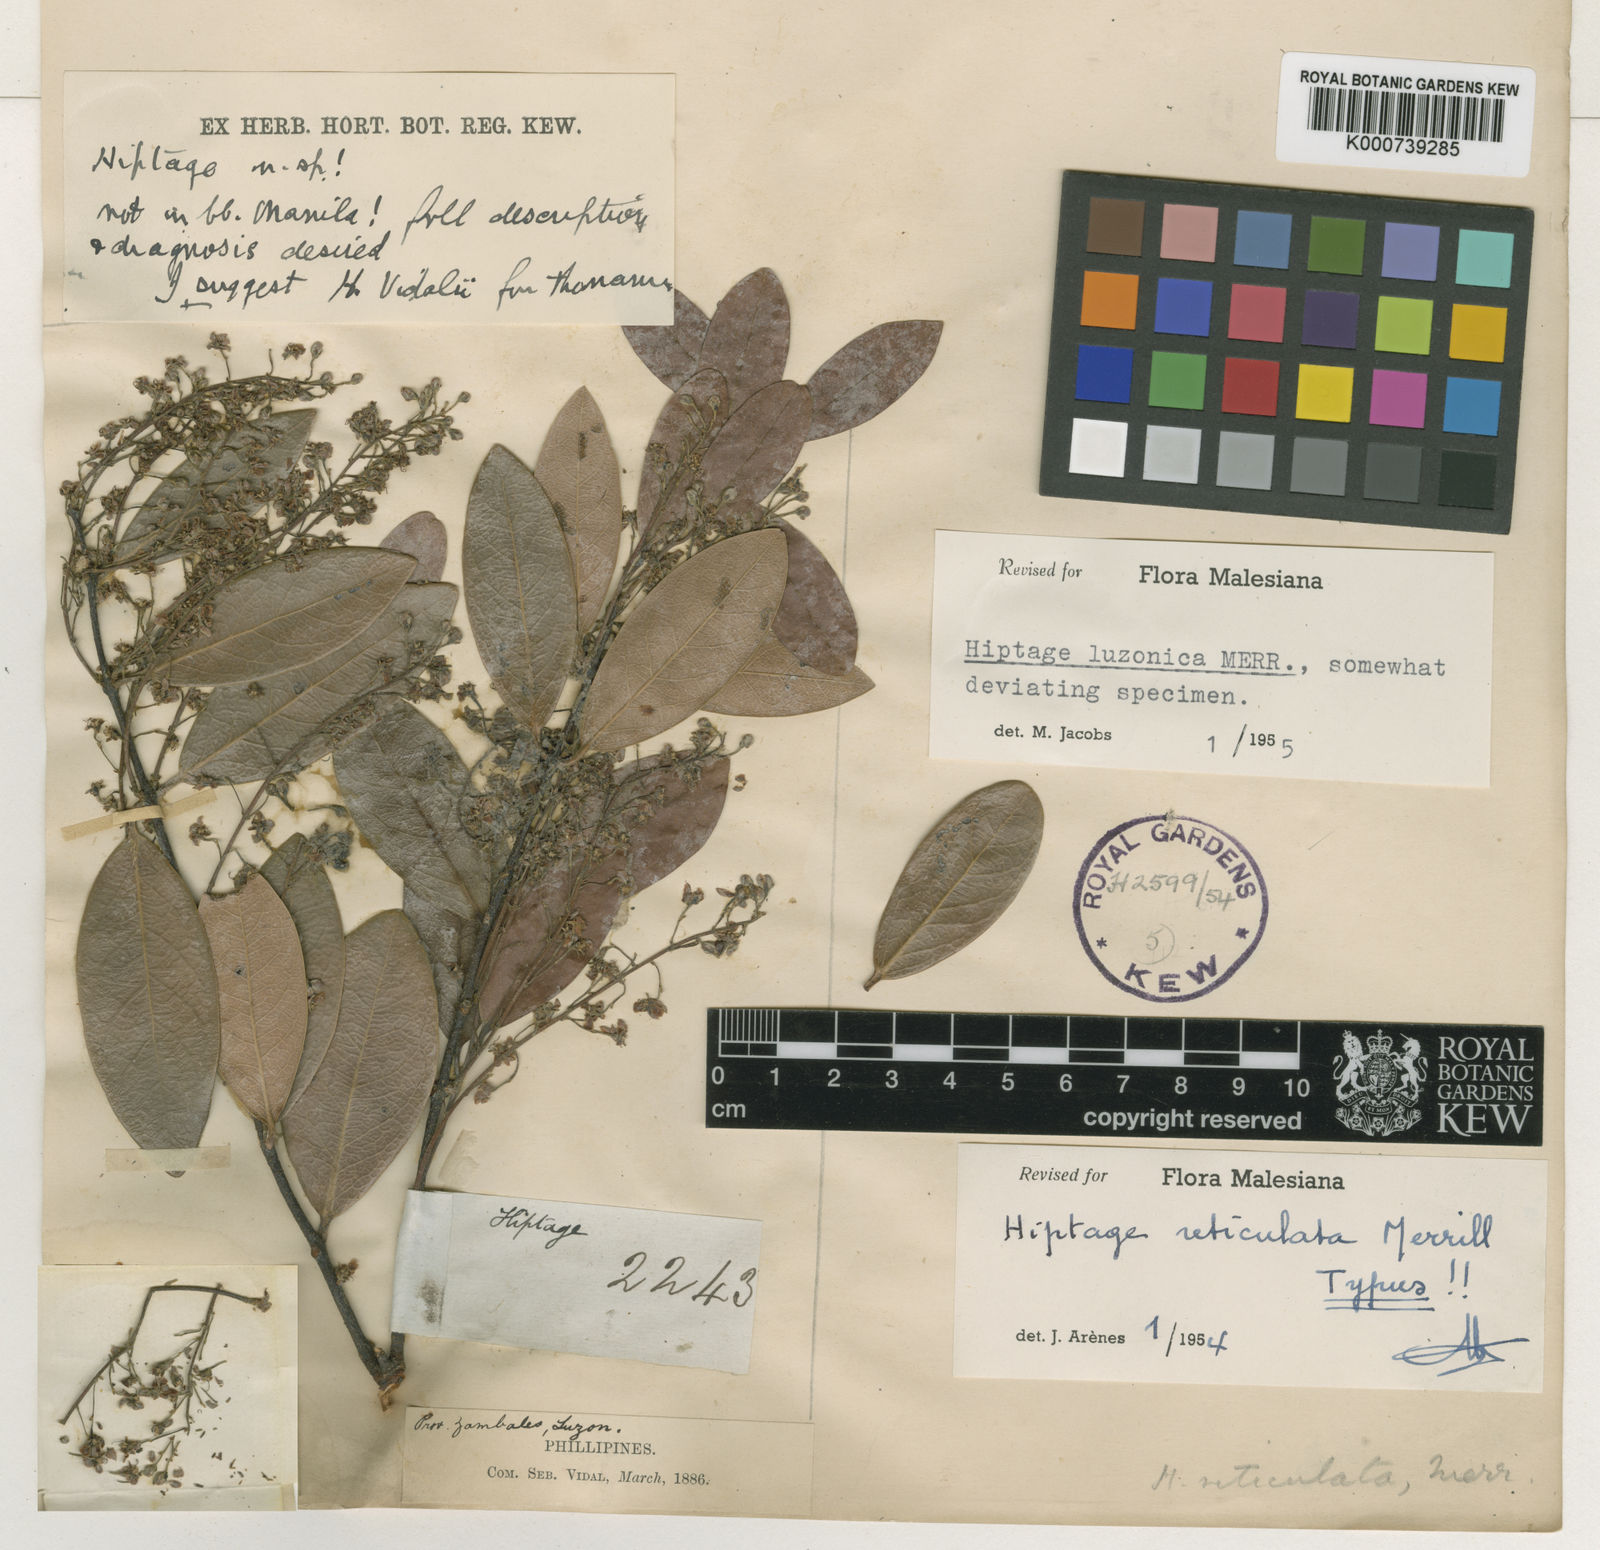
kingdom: Plantae
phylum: Tracheophyta
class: Magnoliopsida
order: Malpighiales
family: Malpighiaceae
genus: Hiptage
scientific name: Hiptage luzonica
